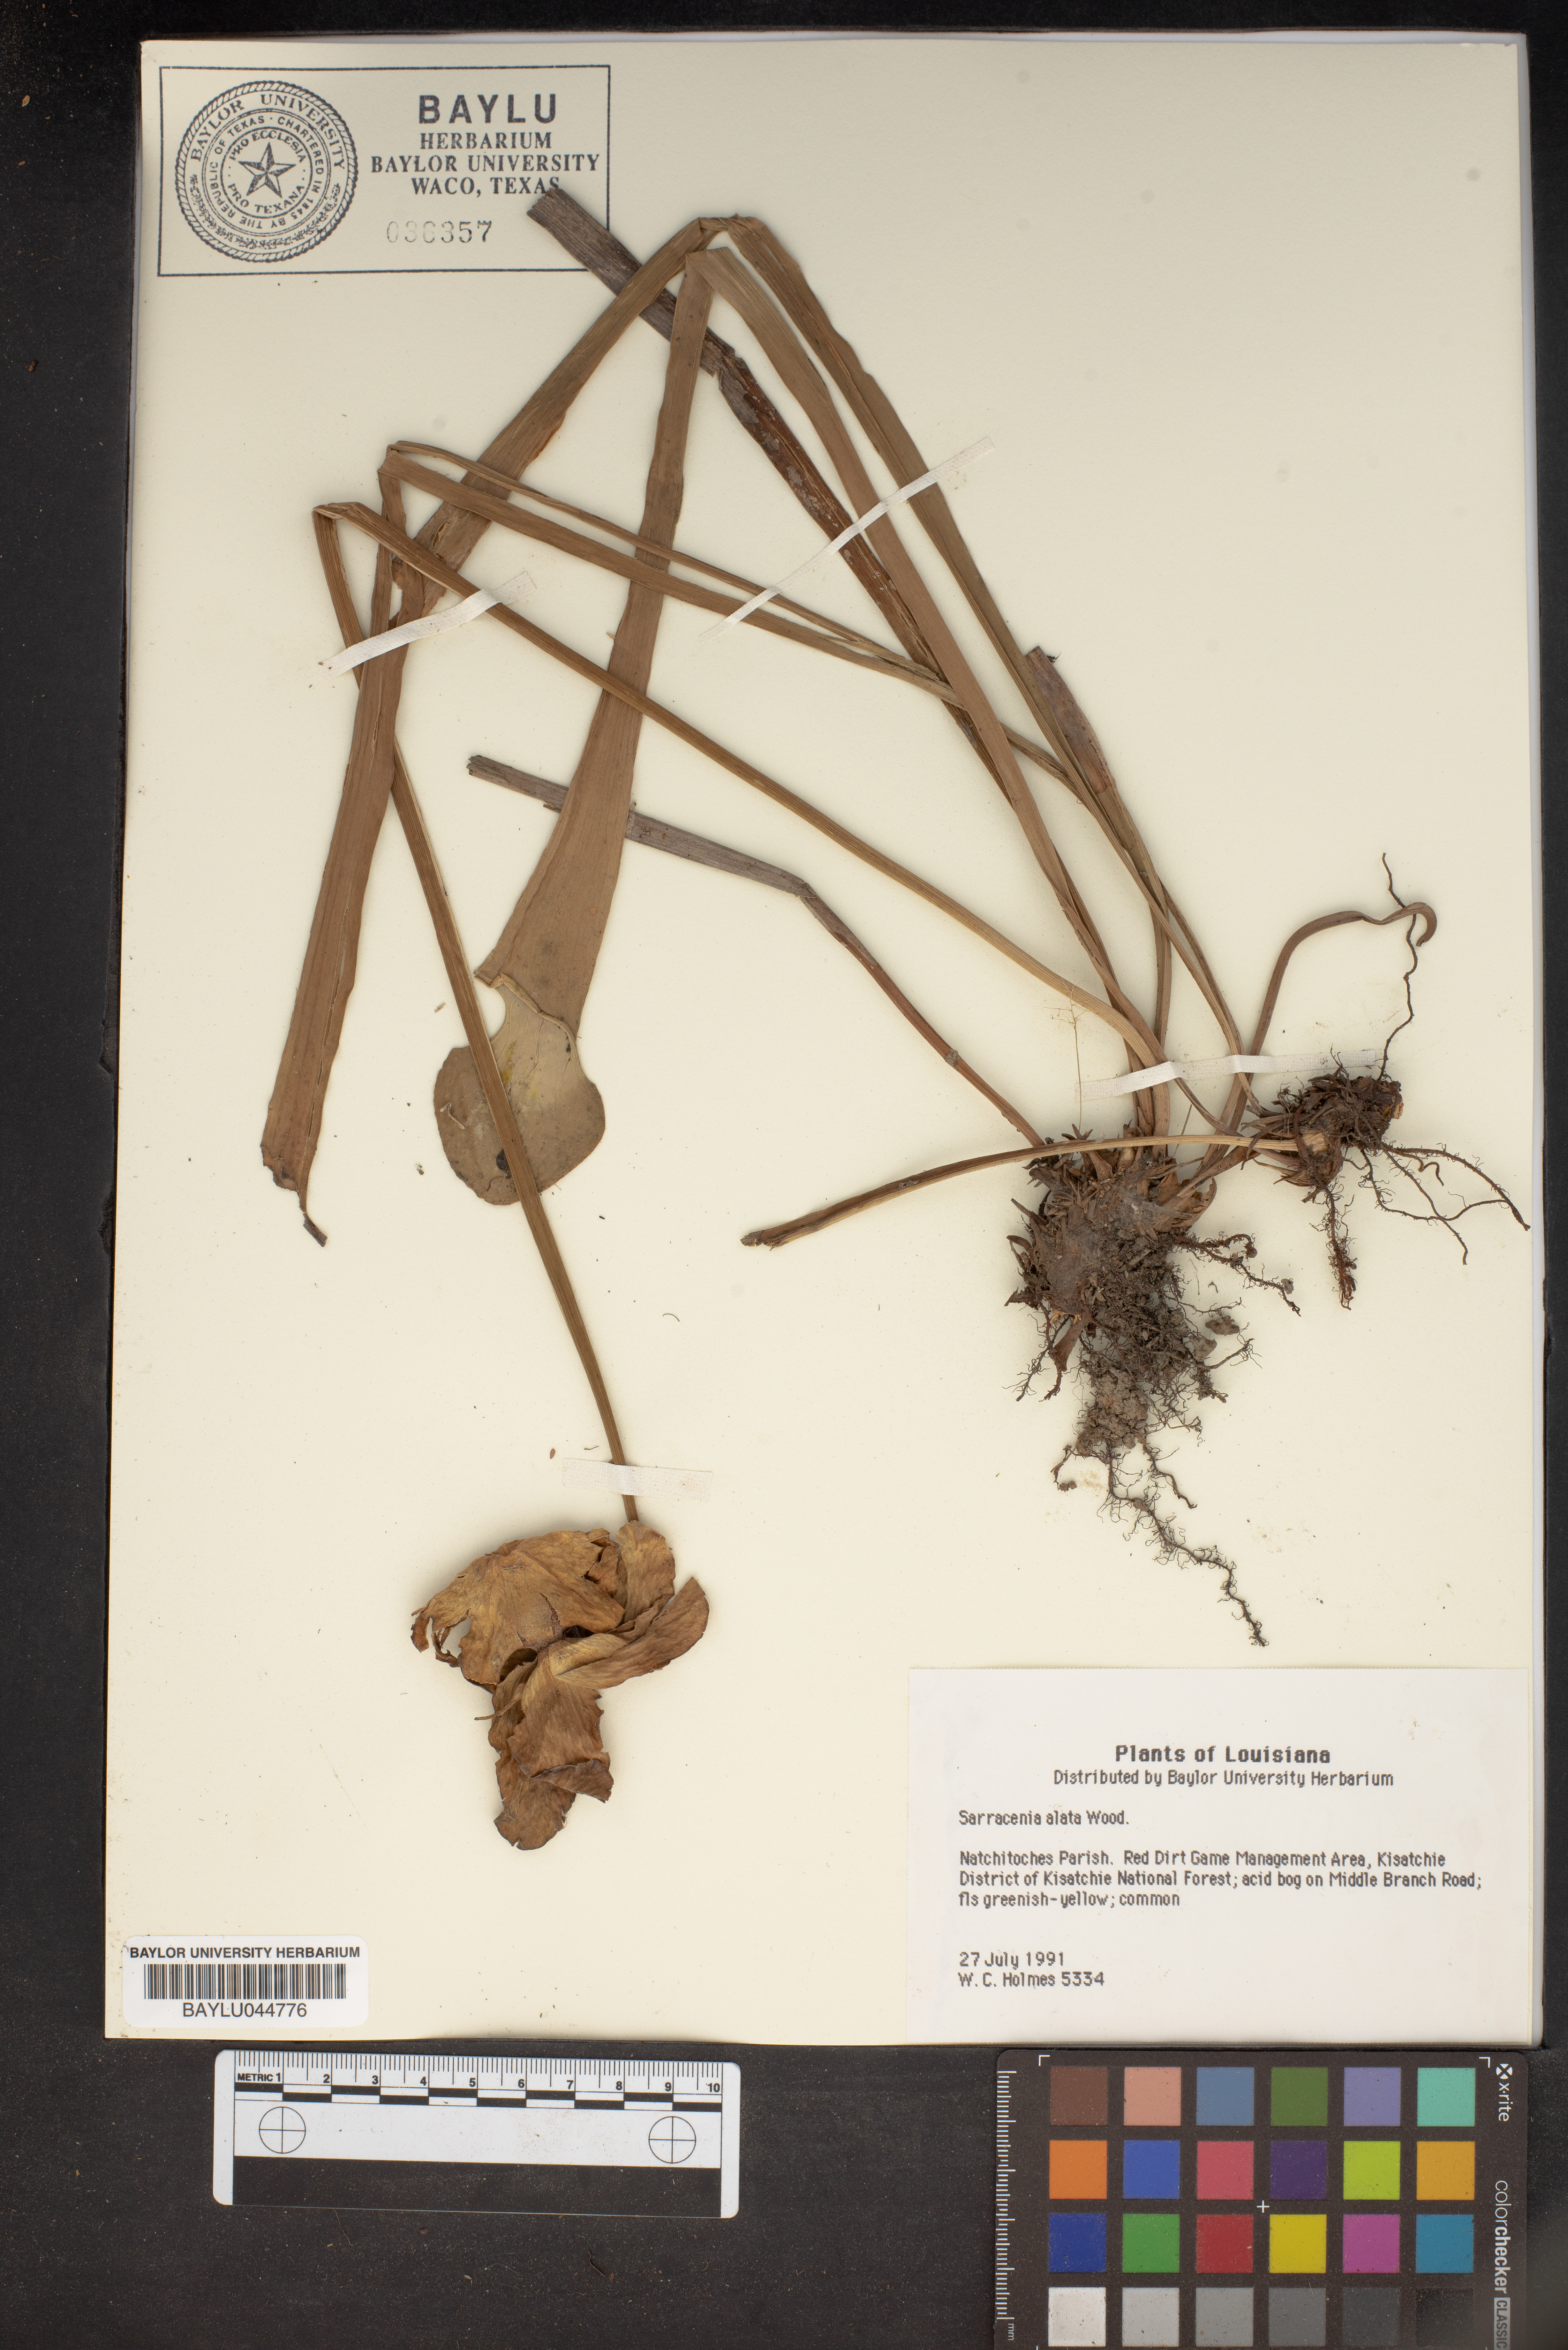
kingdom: Plantae
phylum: Tracheophyta
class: Magnoliopsida
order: Ericales
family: Sarraceniaceae
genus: Sarracenia
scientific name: Sarracenia alata
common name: Yellow trumpets
